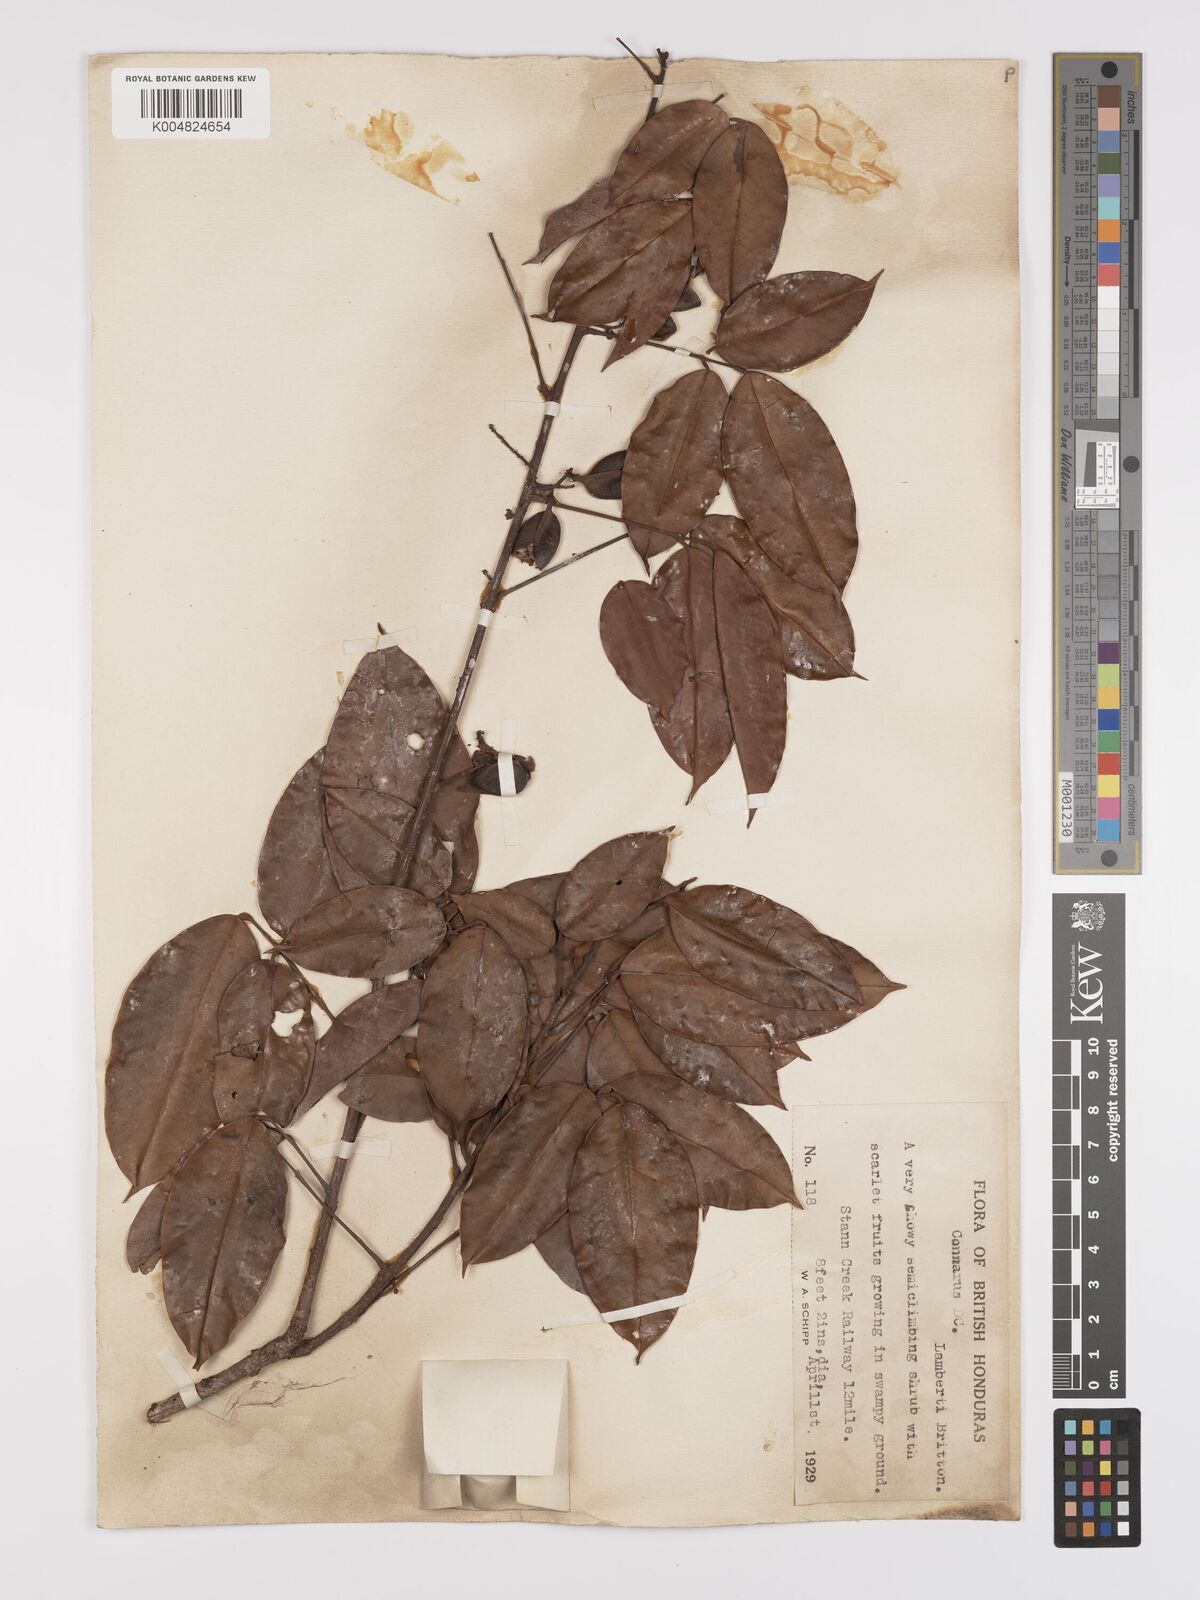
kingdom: Plantae
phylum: Tracheophyta
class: Magnoliopsida
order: Oxalidales
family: Connaraceae
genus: Connarus
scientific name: Connarus lambertii
